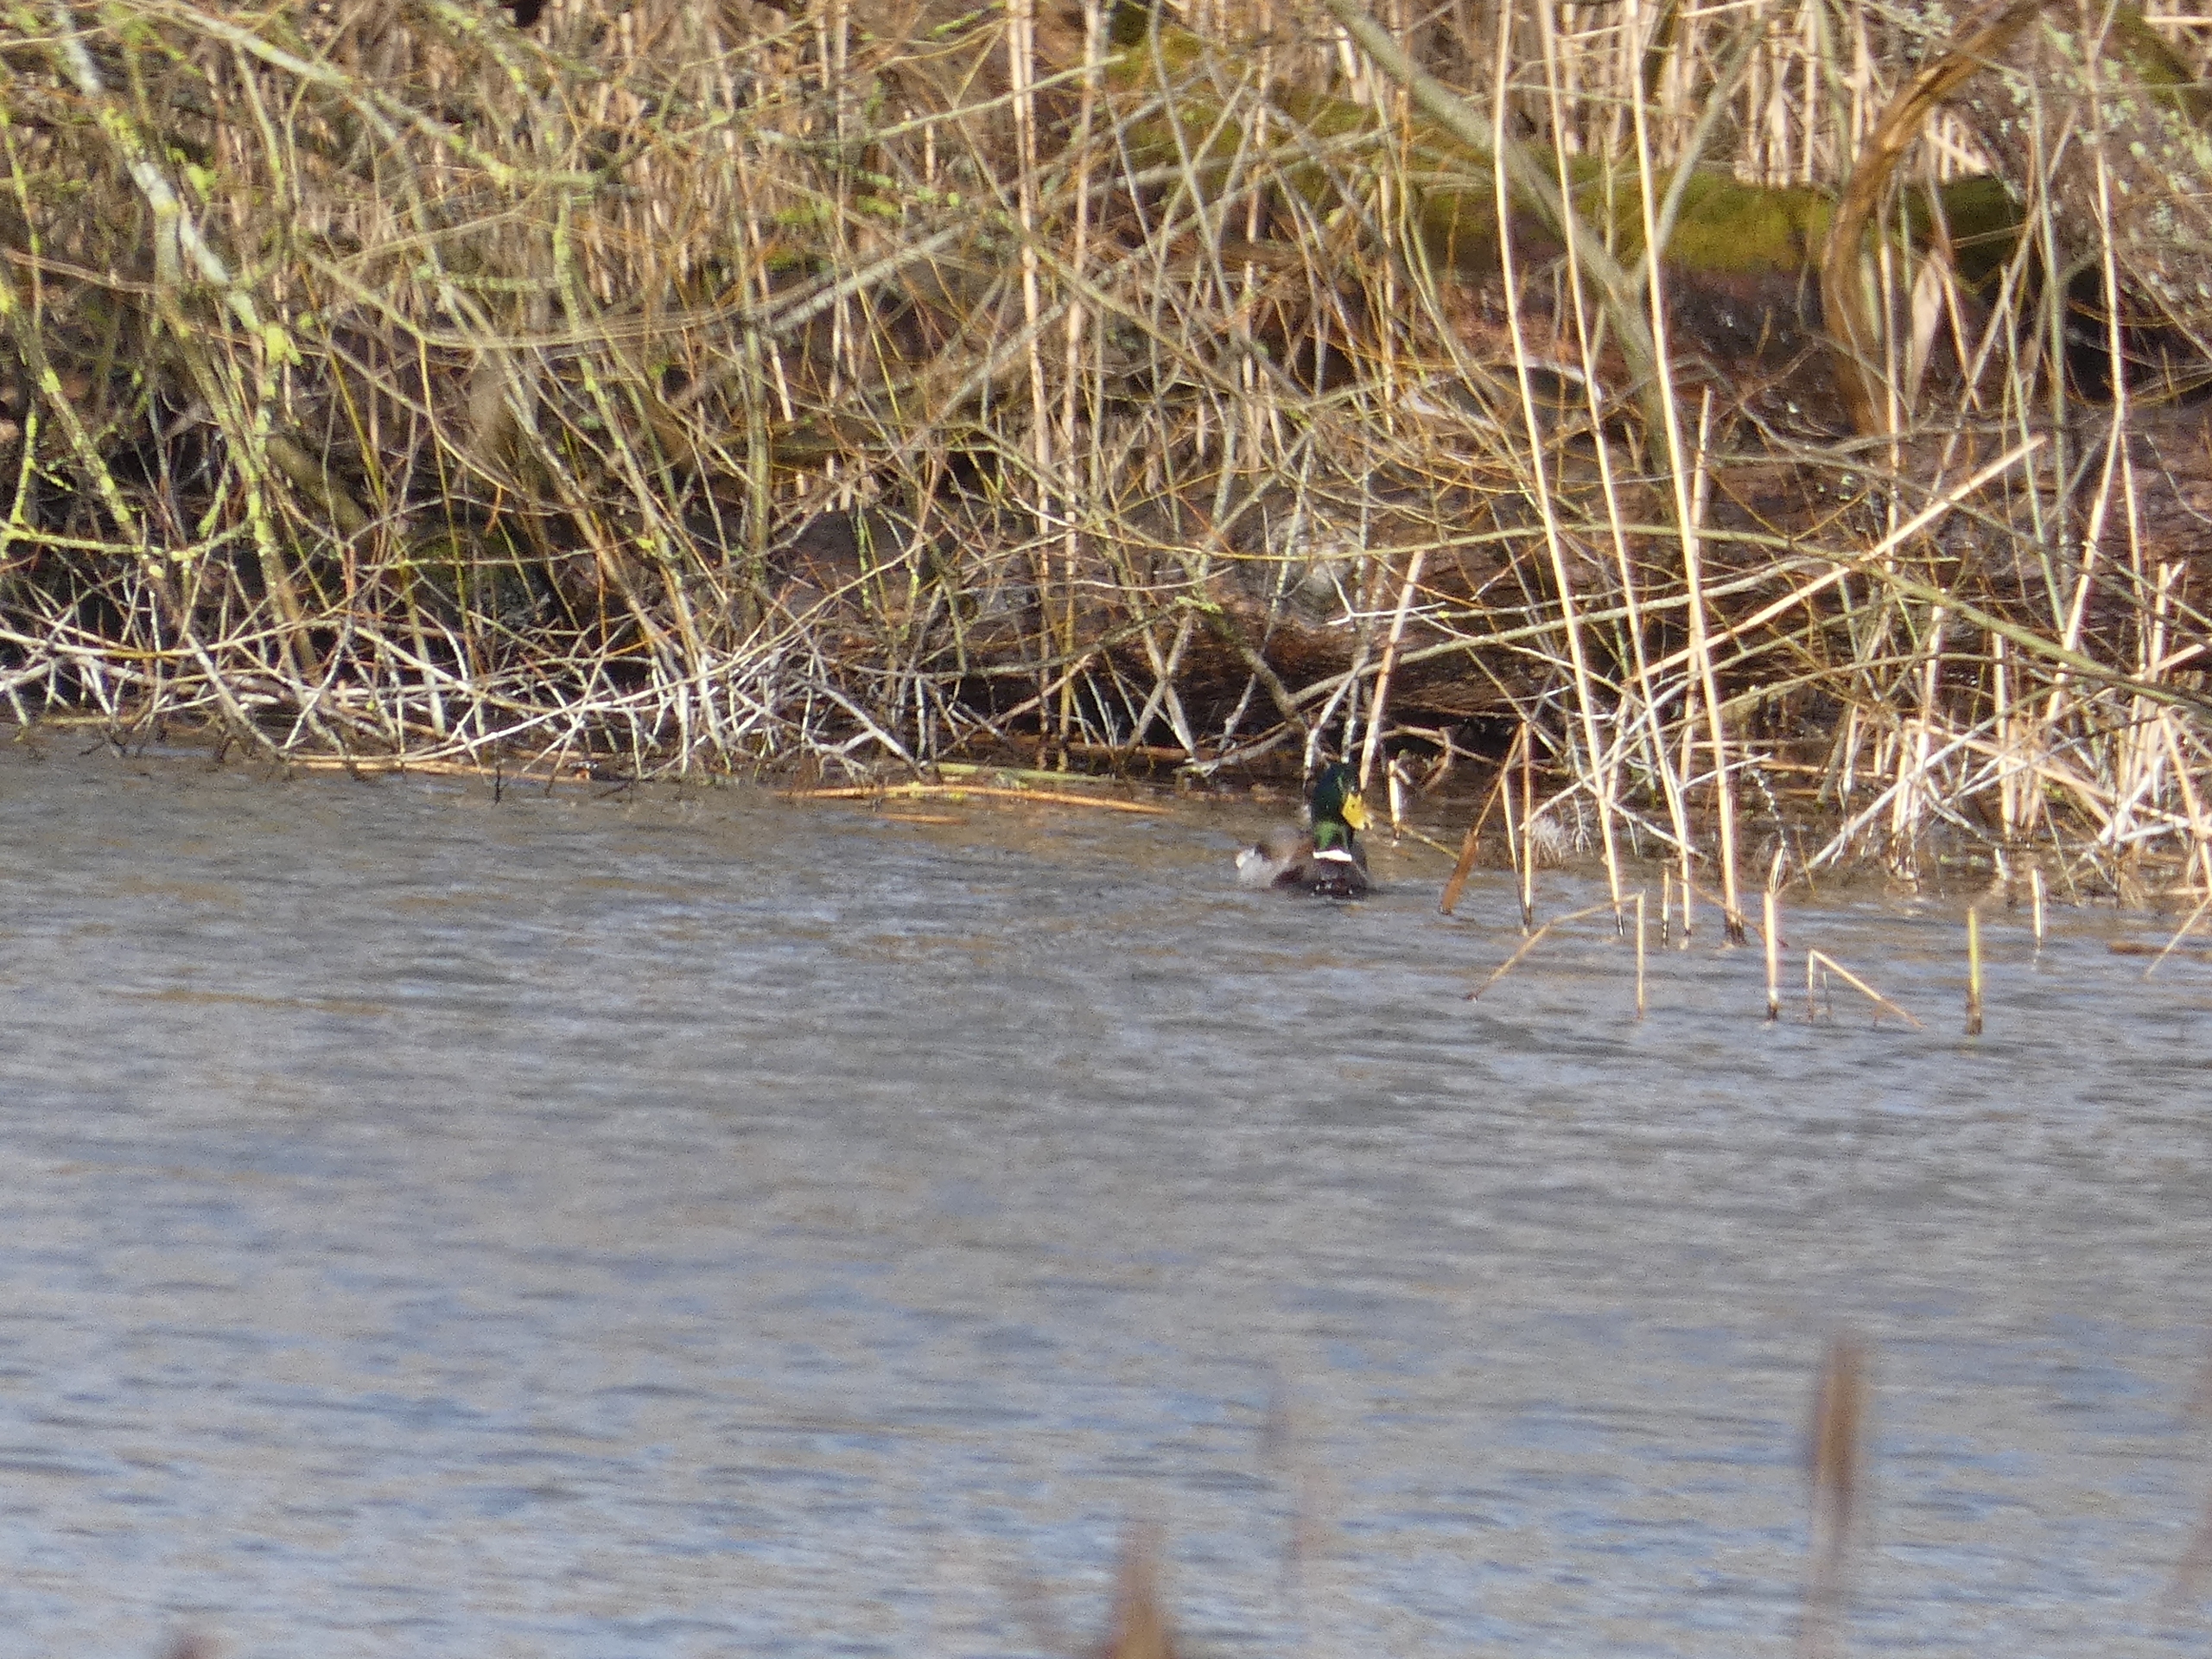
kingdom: Animalia
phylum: Chordata
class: Aves
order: Anseriformes
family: Anatidae
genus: Anas
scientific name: Anas platyrhynchos
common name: Gråand
